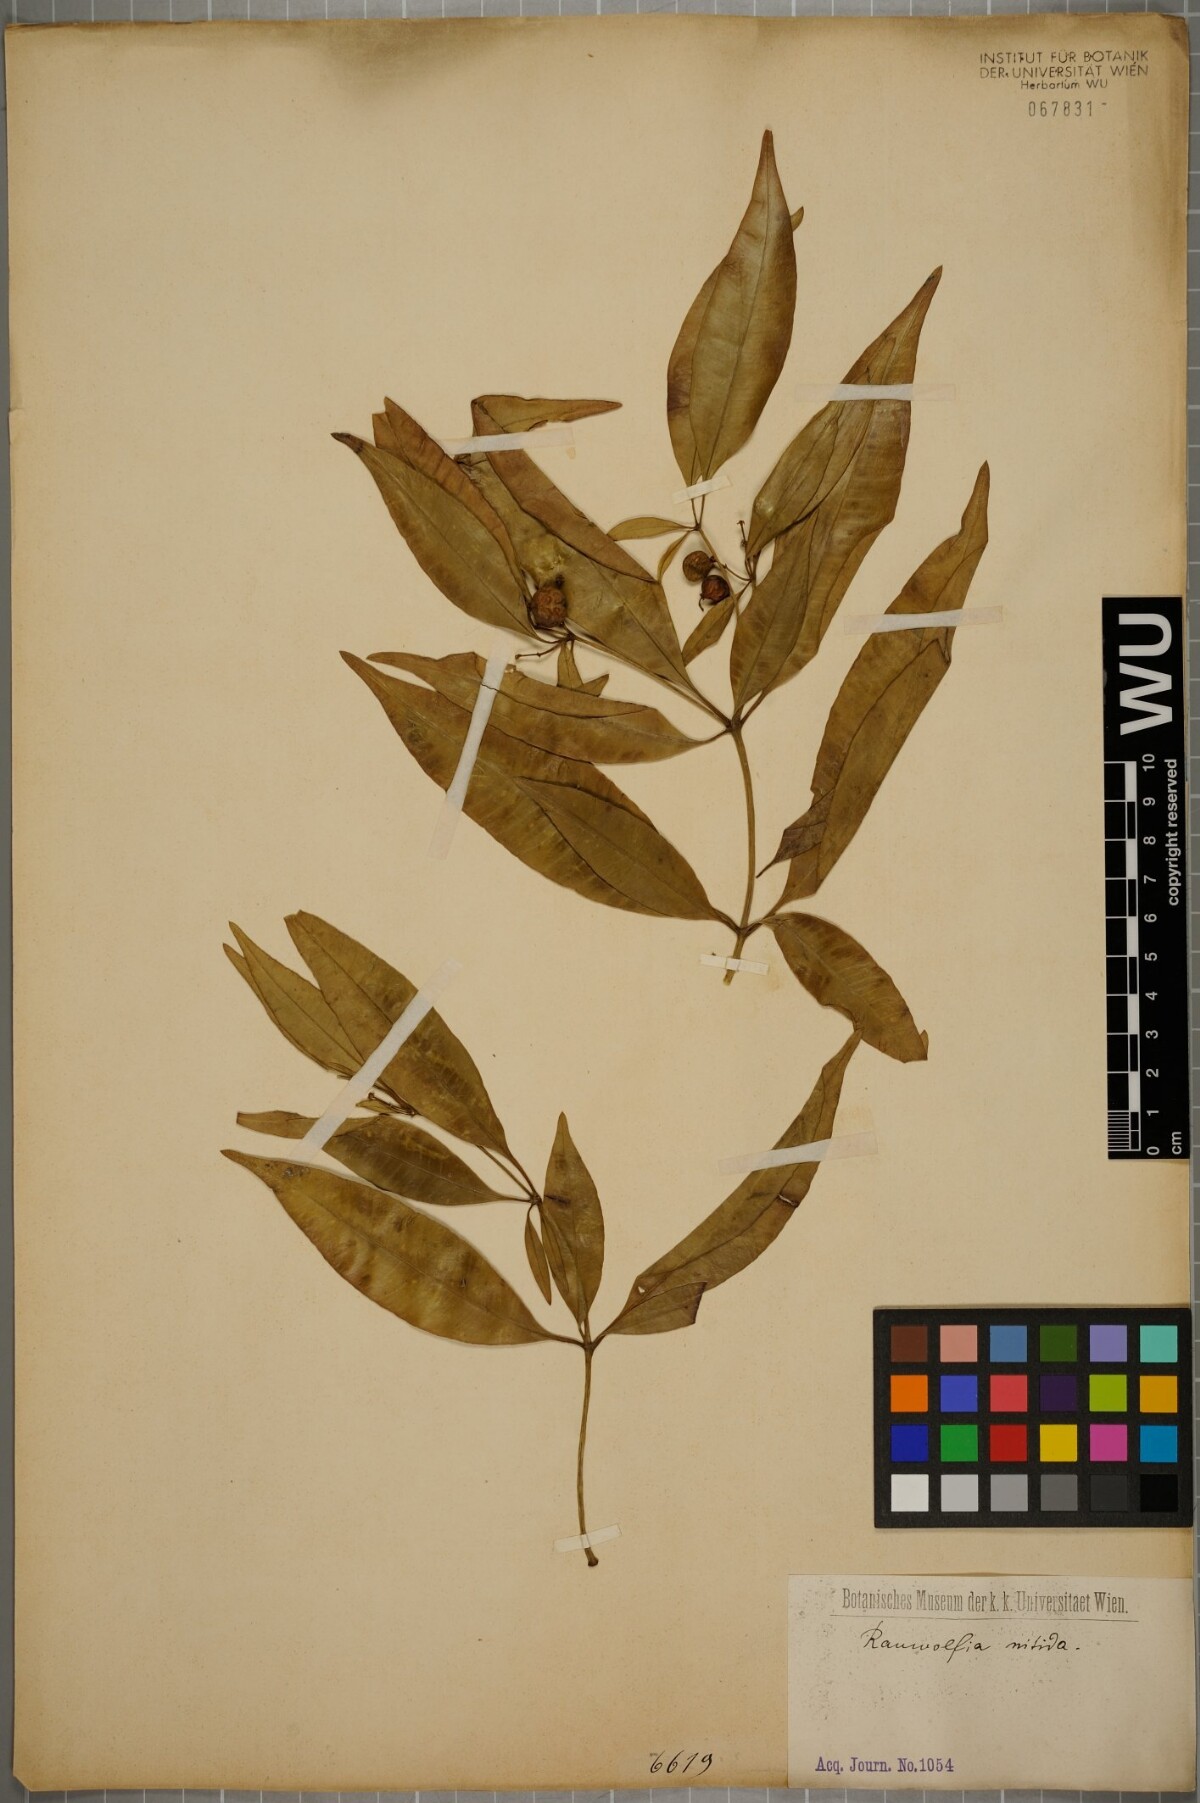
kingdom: Plantae
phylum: Tracheophyta
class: Magnoliopsida
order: Gentianales
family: Apocynaceae
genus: Rauvolfia
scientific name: Rauvolfia nitida
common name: Bitter-ash
